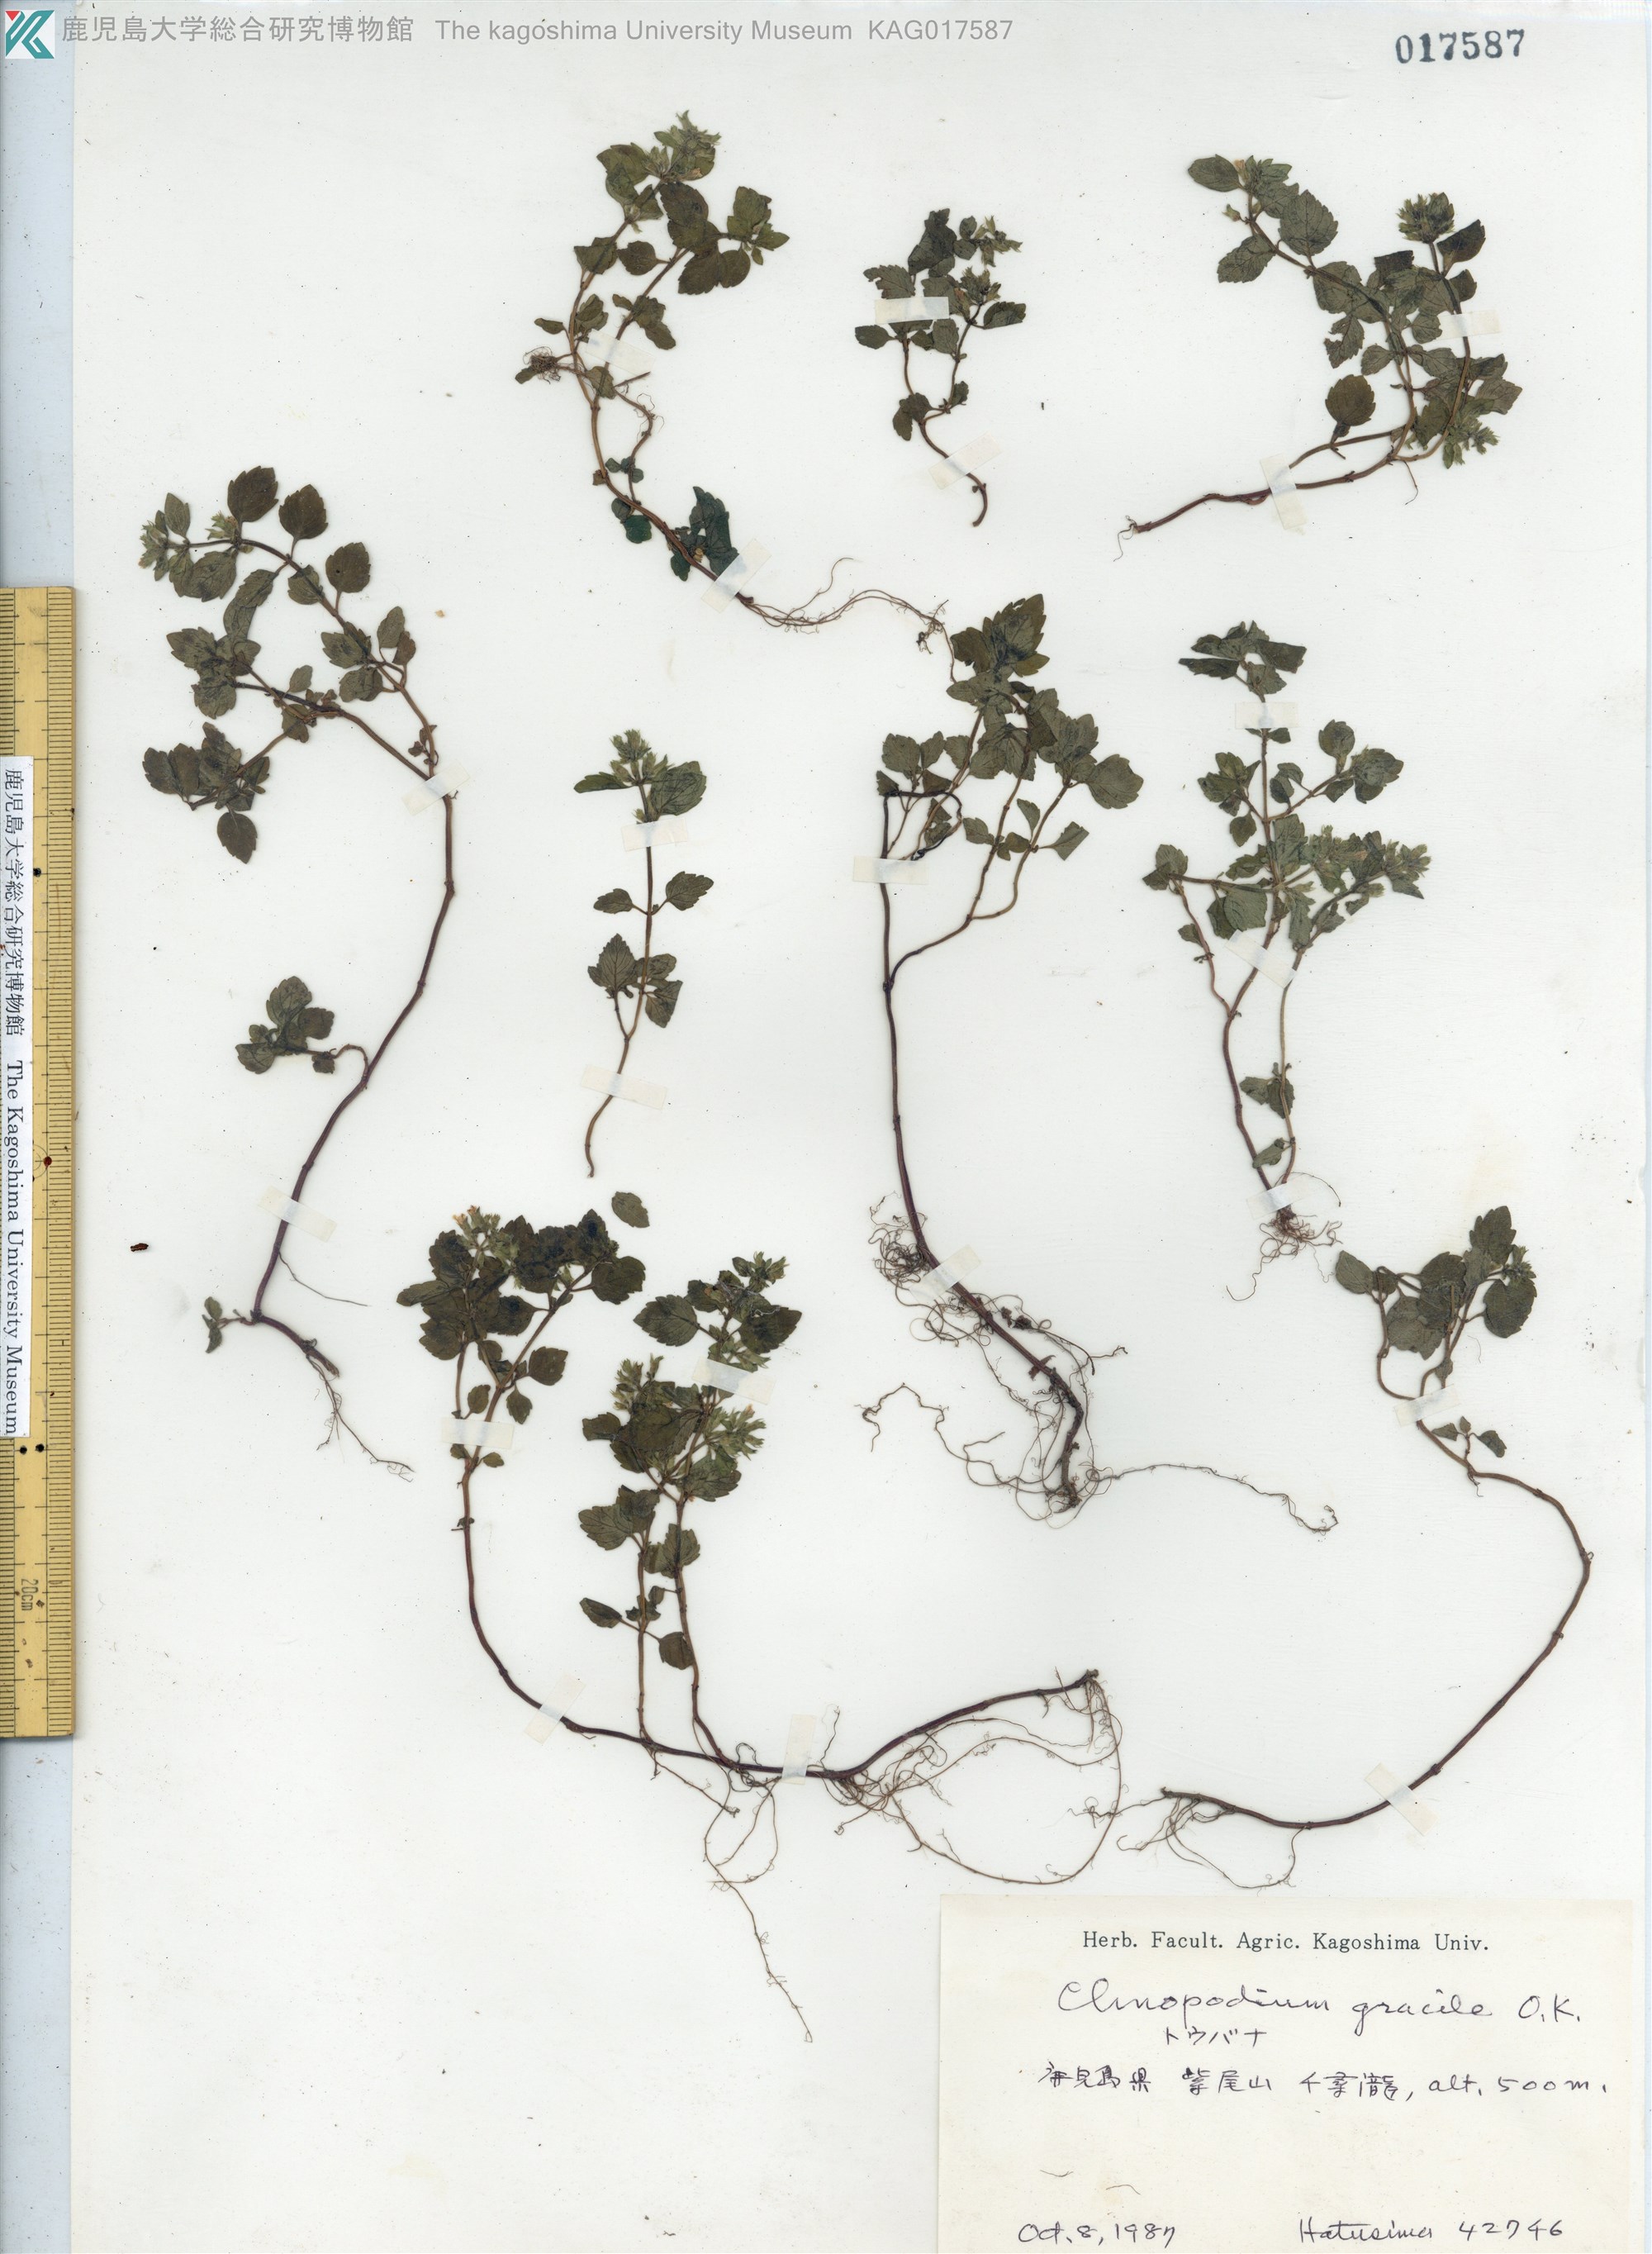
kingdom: Plantae
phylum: Tracheophyta
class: Magnoliopsida
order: Lamiales
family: Lamiaceae
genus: Clinopodium
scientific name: Clinopodium gracile
